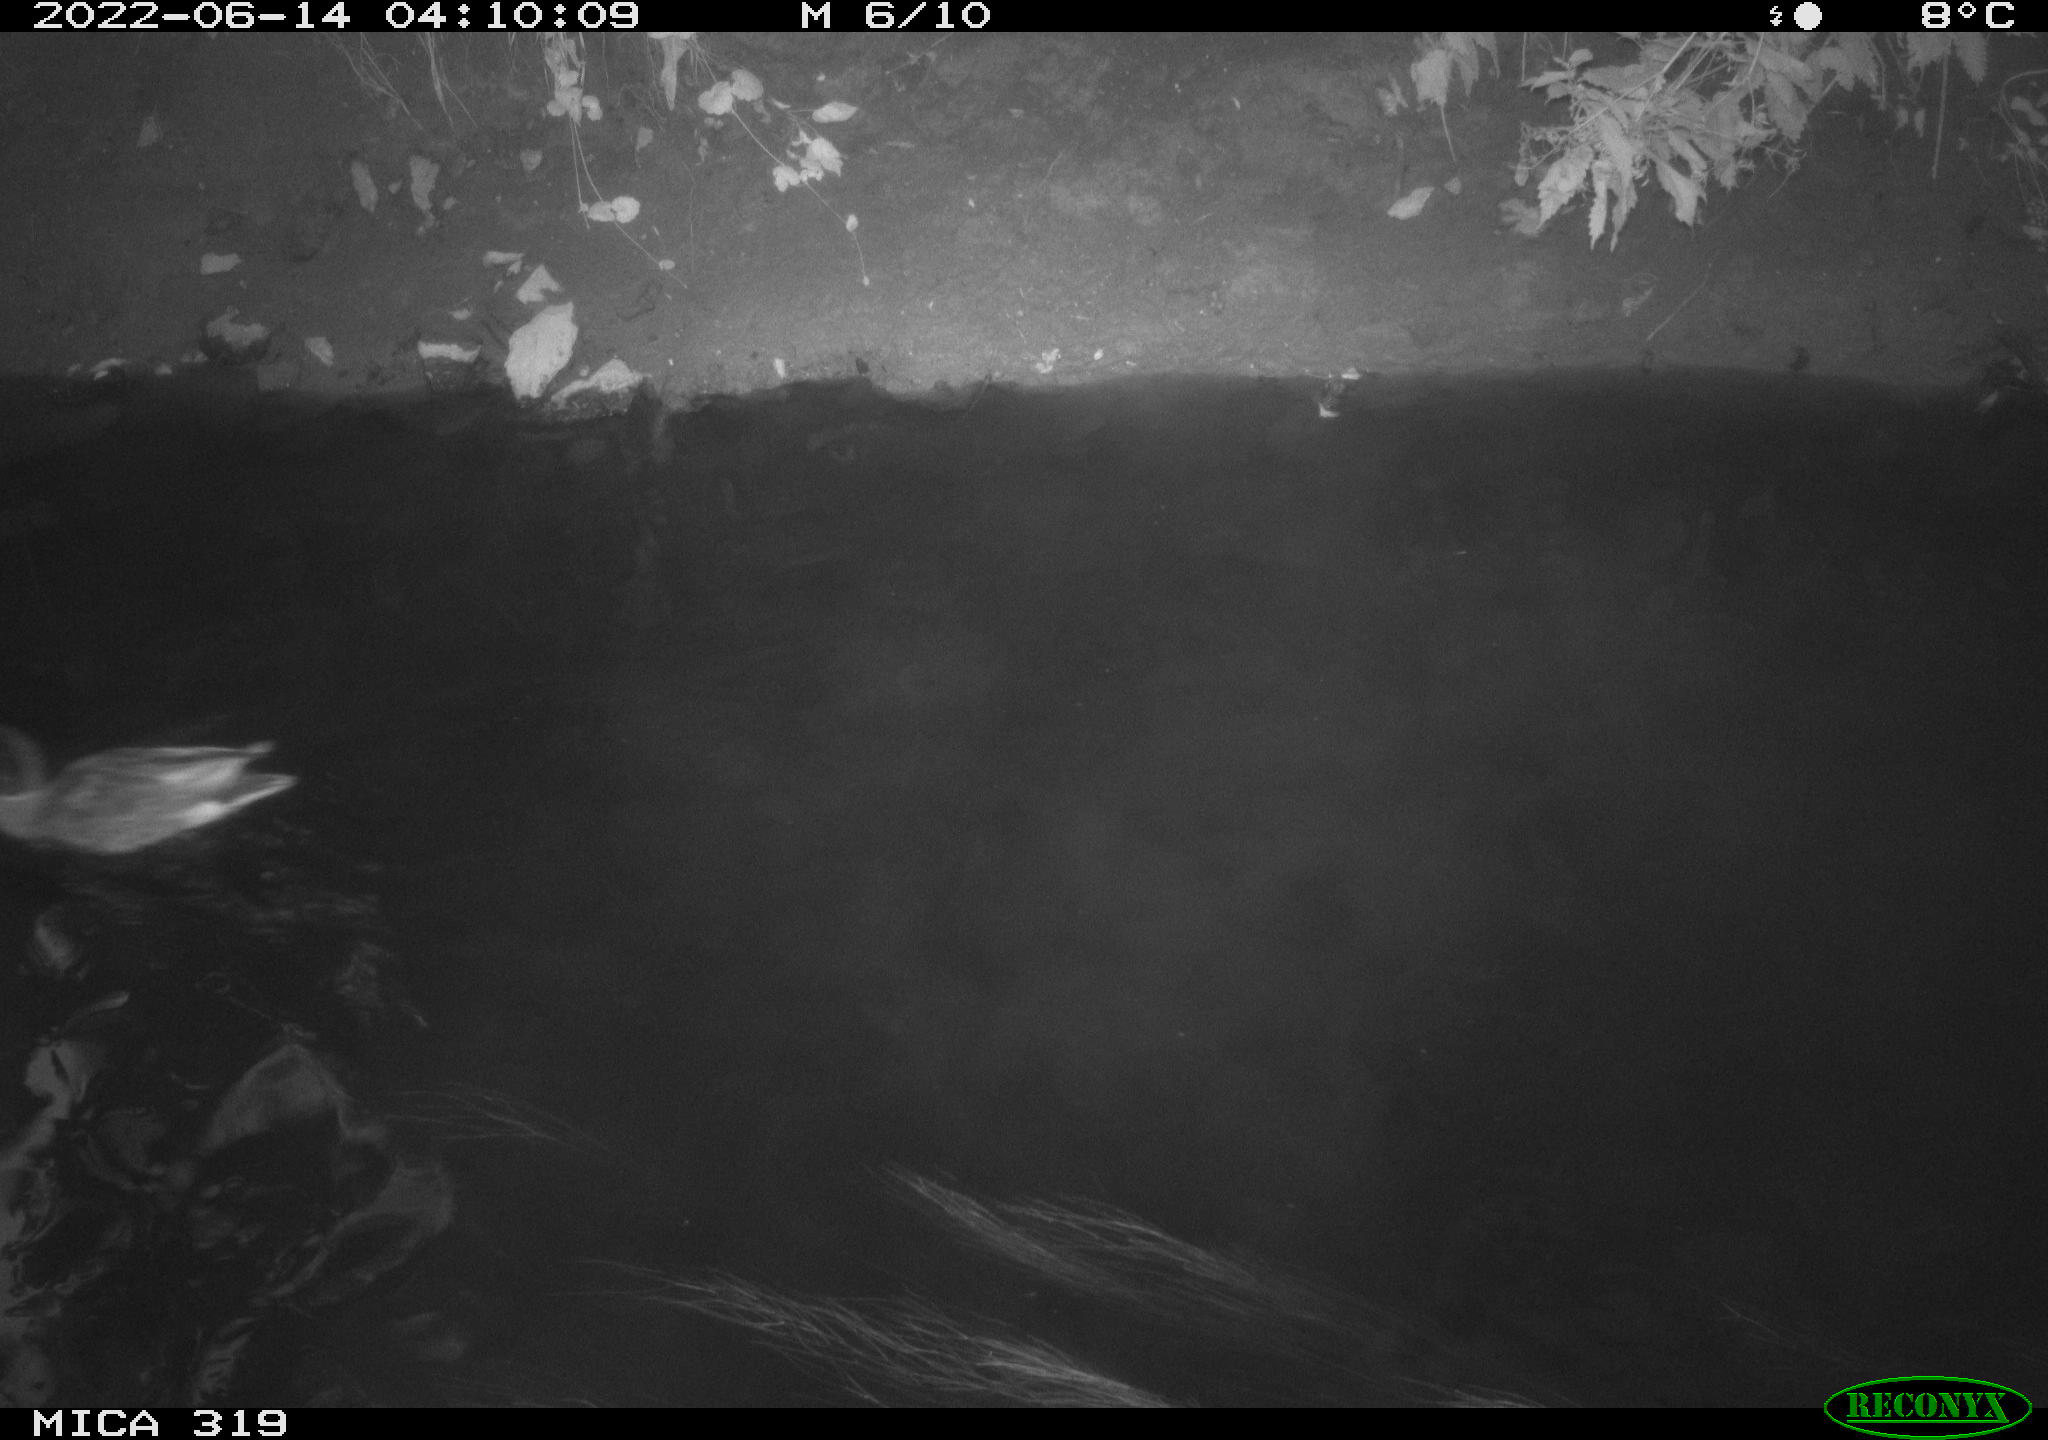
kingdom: Animalia
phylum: Chordata
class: Aves
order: Anseriformes
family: Anatidae
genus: Anas
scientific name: Anas
